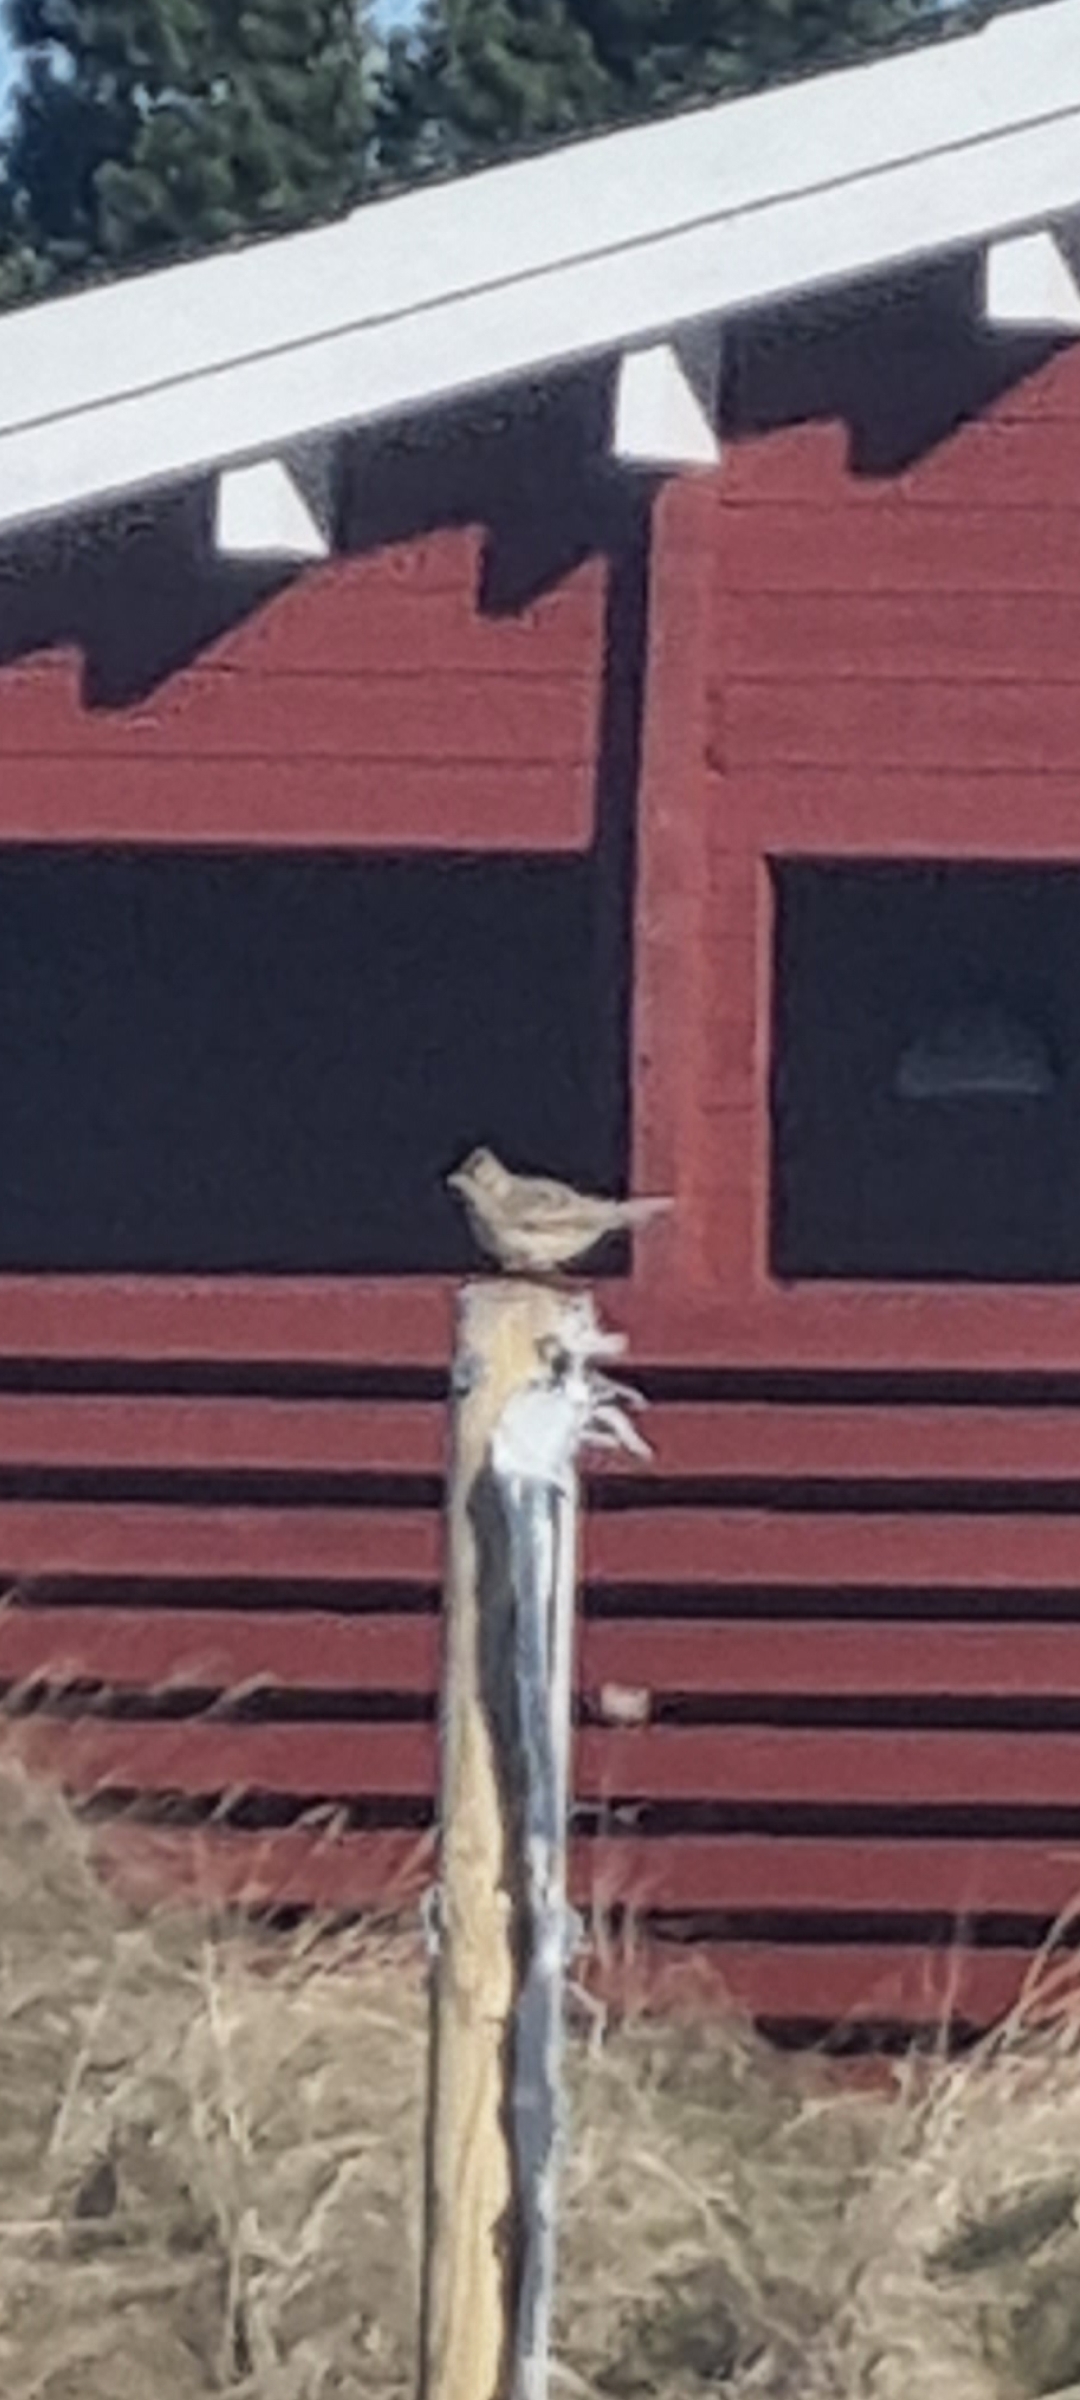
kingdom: Animalia
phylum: Chordata
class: Aves
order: Passeriformes
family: Alaudidae
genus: Alauda
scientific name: Alauda arvensis
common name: Sanglærke
